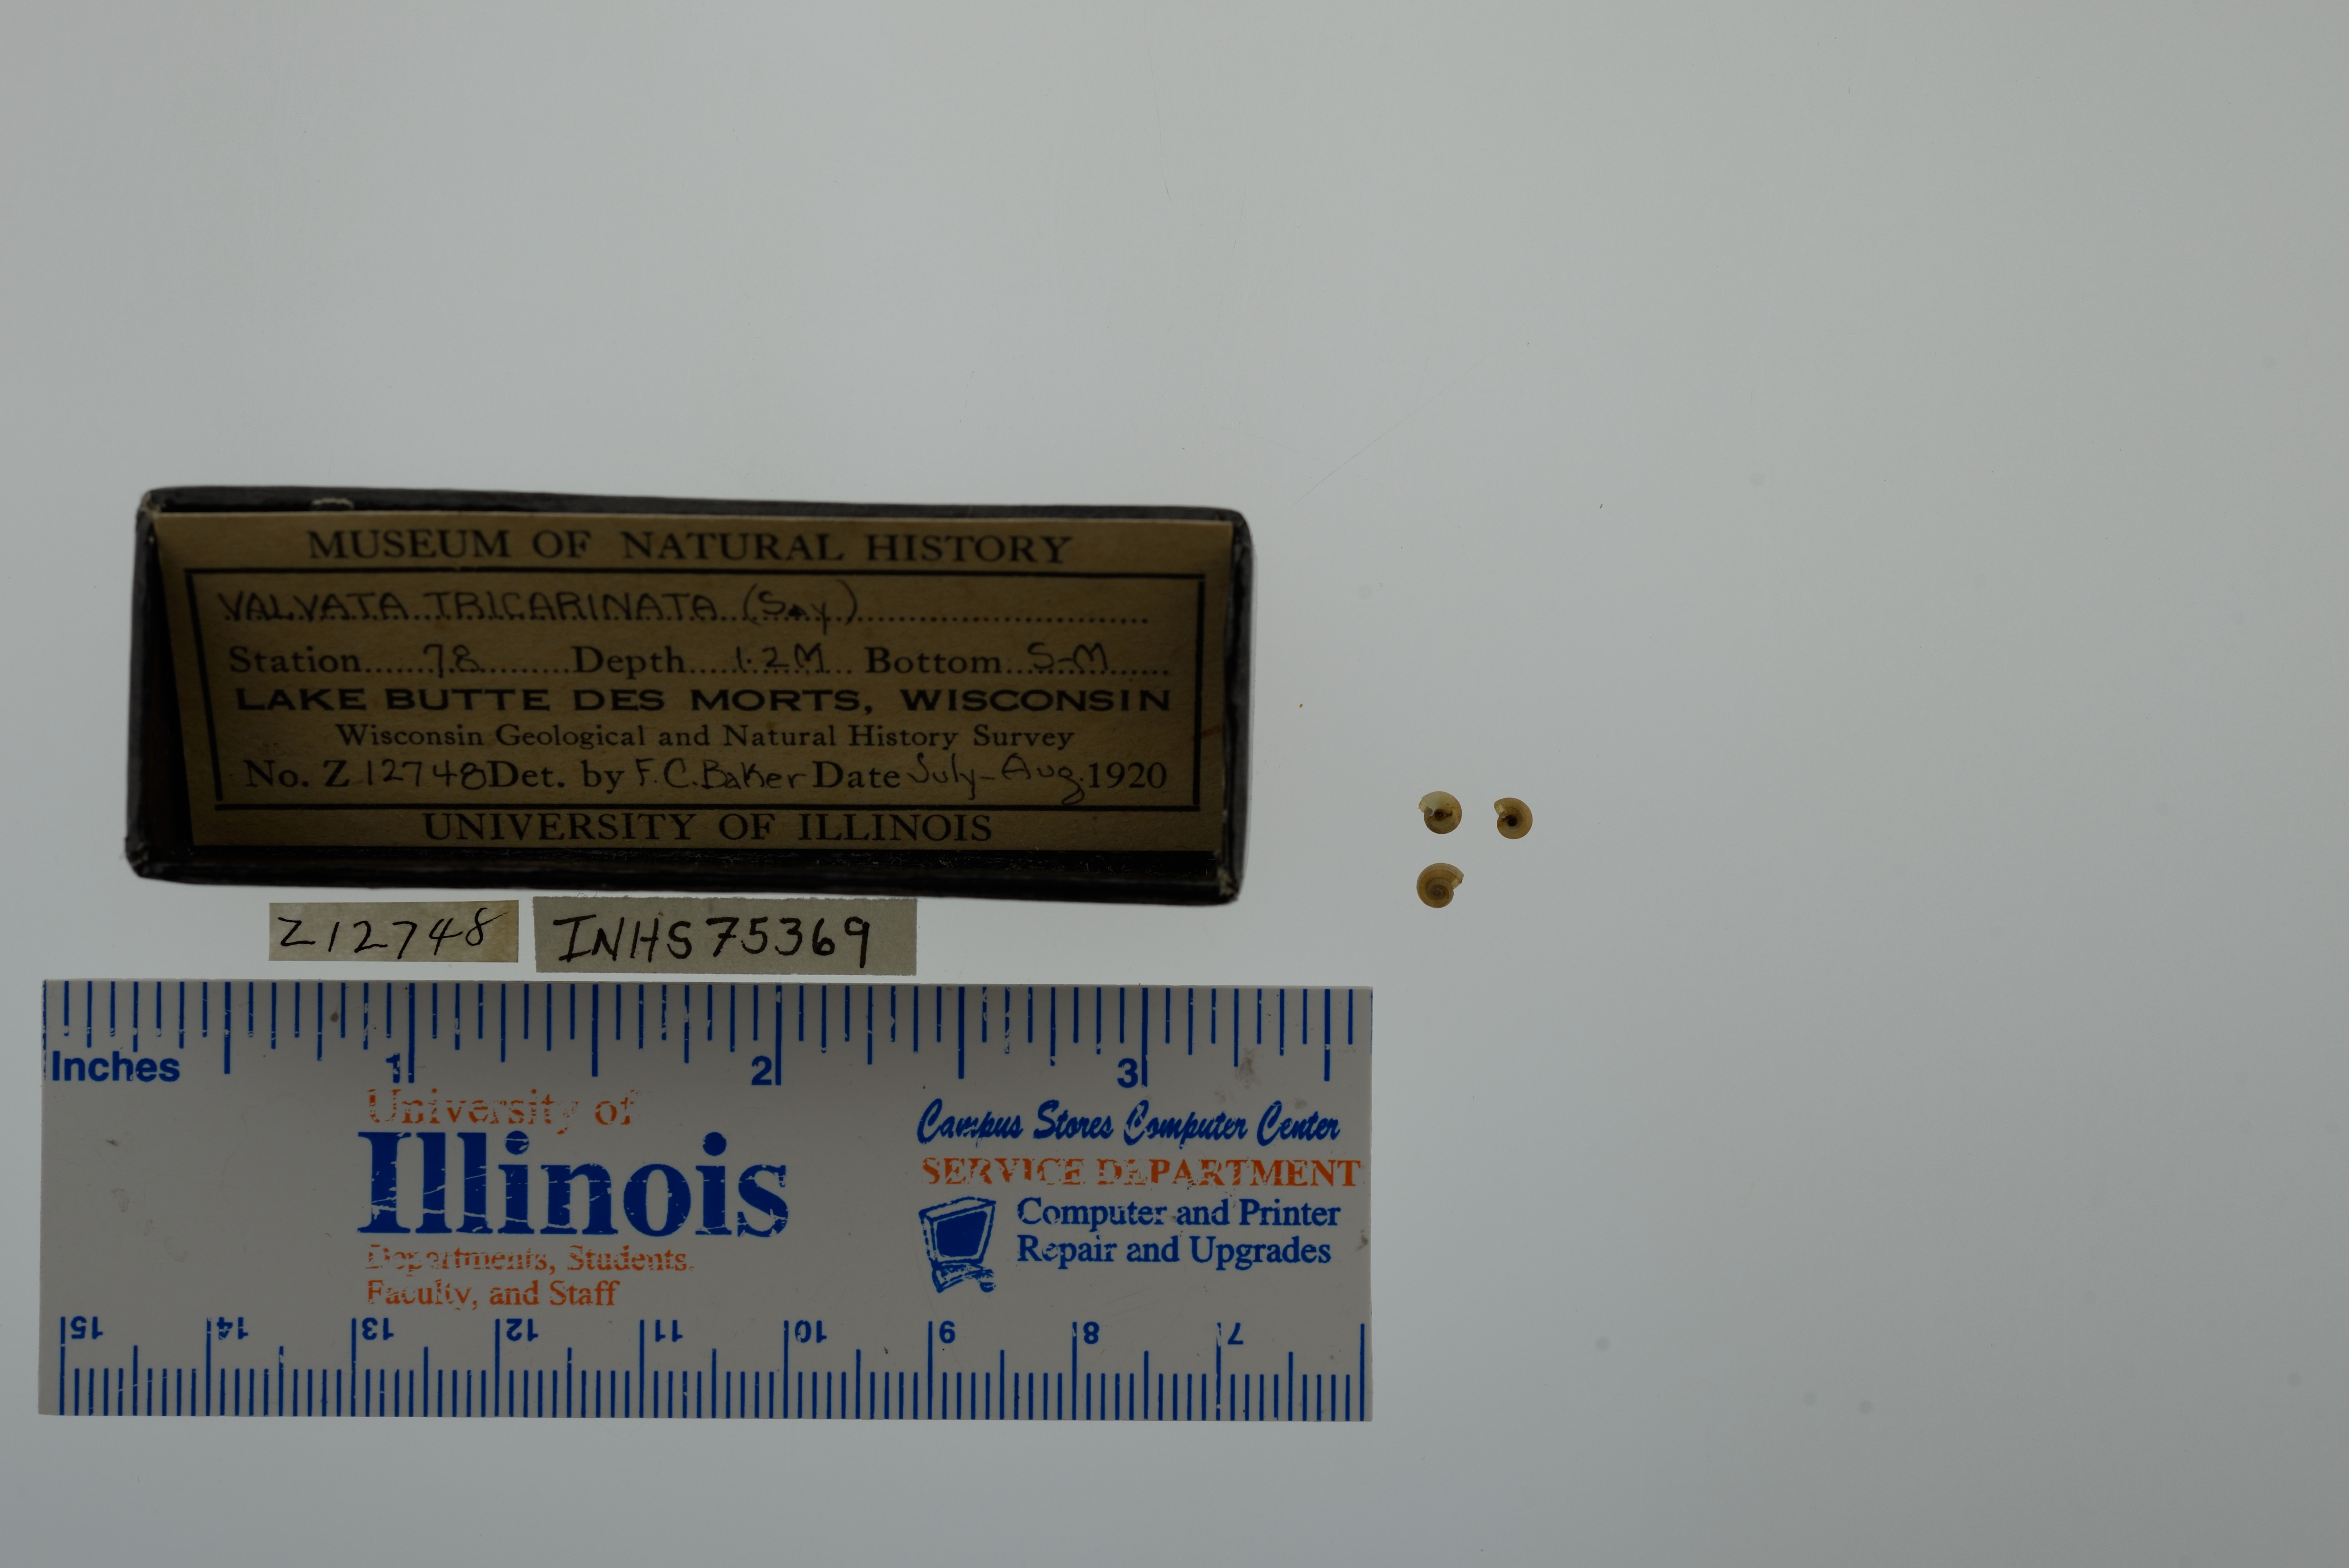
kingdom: Animalia
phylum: Mollusca
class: Gastropoda
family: Valvatidae
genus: Valvata
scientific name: Valvata tricarinata
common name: Three-ridge valvata
